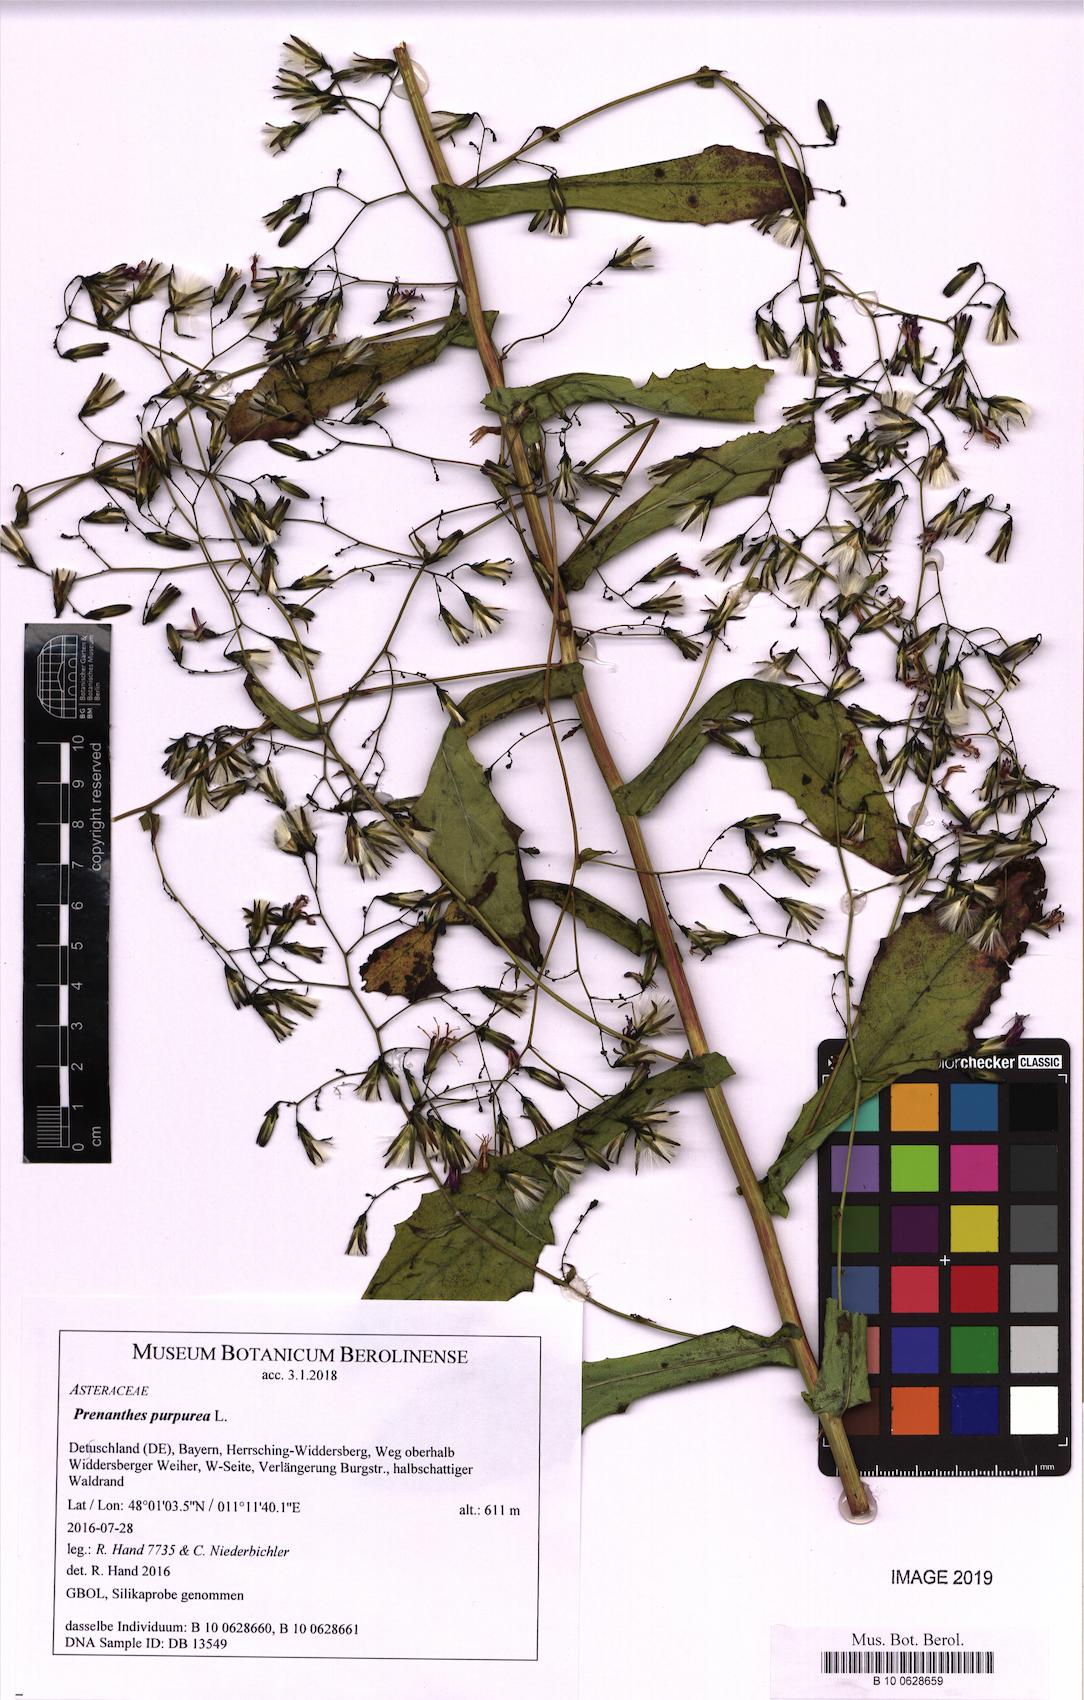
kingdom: Plantae
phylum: Tracheophyta
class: Magnoliopsida
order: Asterales
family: Asteraceae
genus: Prenanthes
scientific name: Prenanthes purpurea
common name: Purple lettuce
